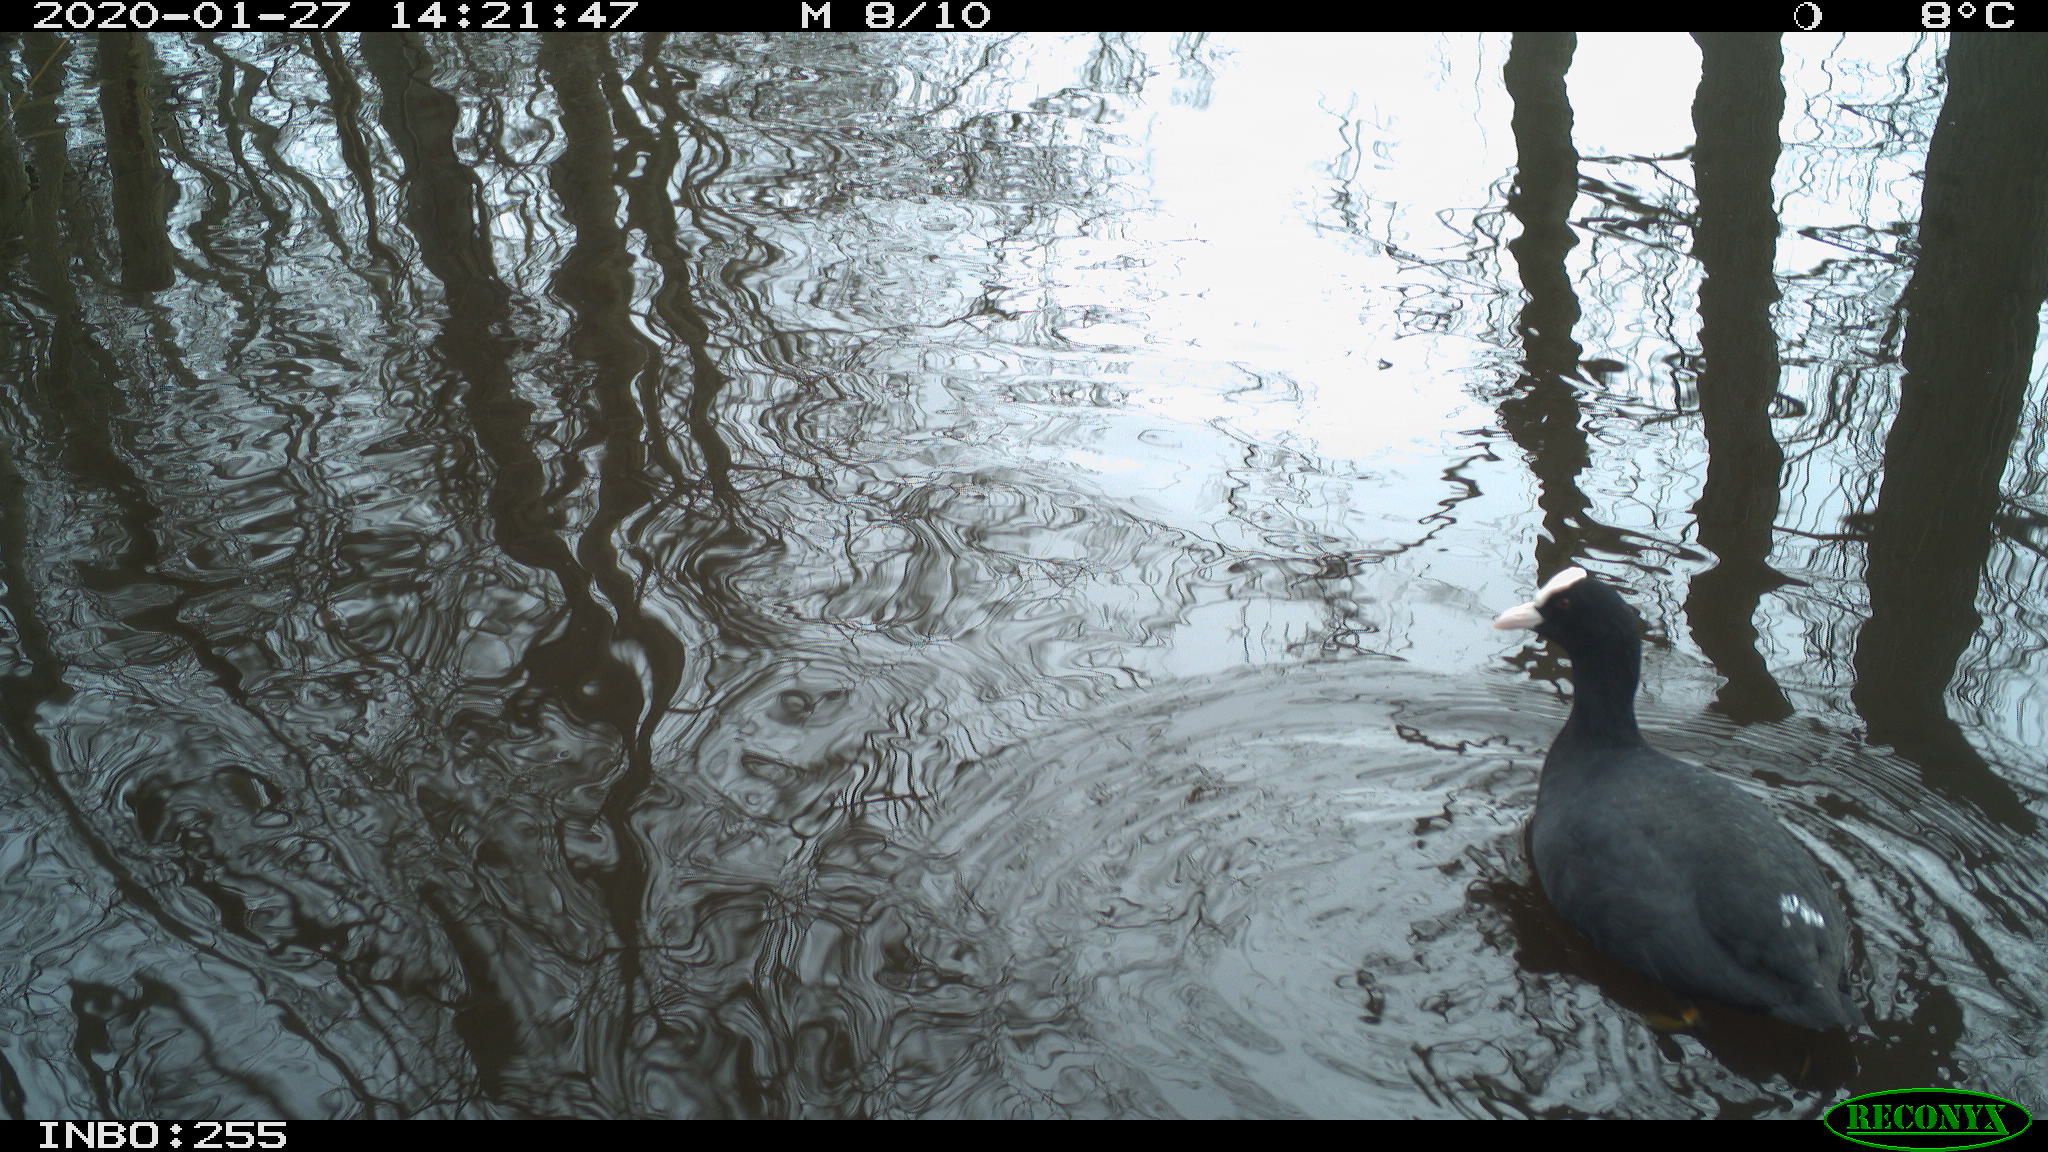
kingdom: Animalia
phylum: Chordata
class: Aves
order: Gruiformes
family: Rallidae
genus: Fulica
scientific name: Fulica atra
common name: Eurasian coot
